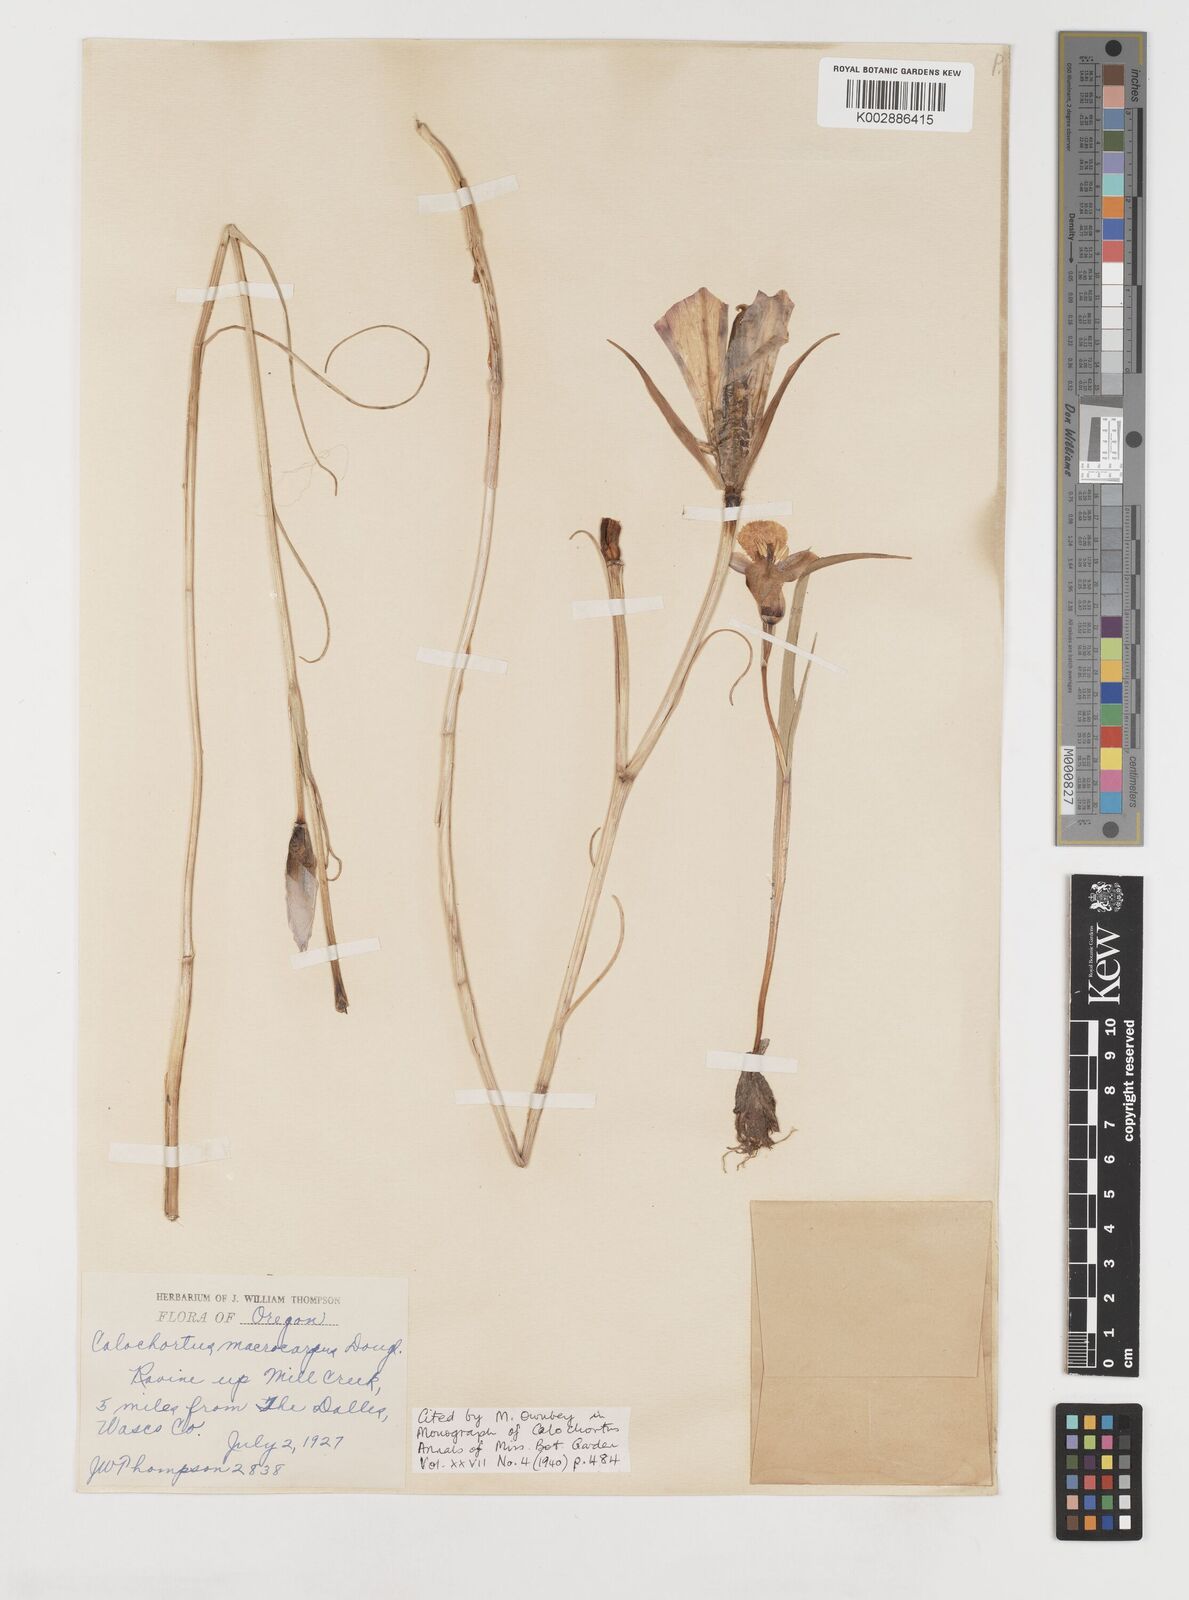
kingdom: Plantae
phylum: Tracheophyta
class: Liliopsida
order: Liliales
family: Liliaceae
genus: Calochortus
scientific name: Calochortus macrocarpus
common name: Green-band mariposa lily
